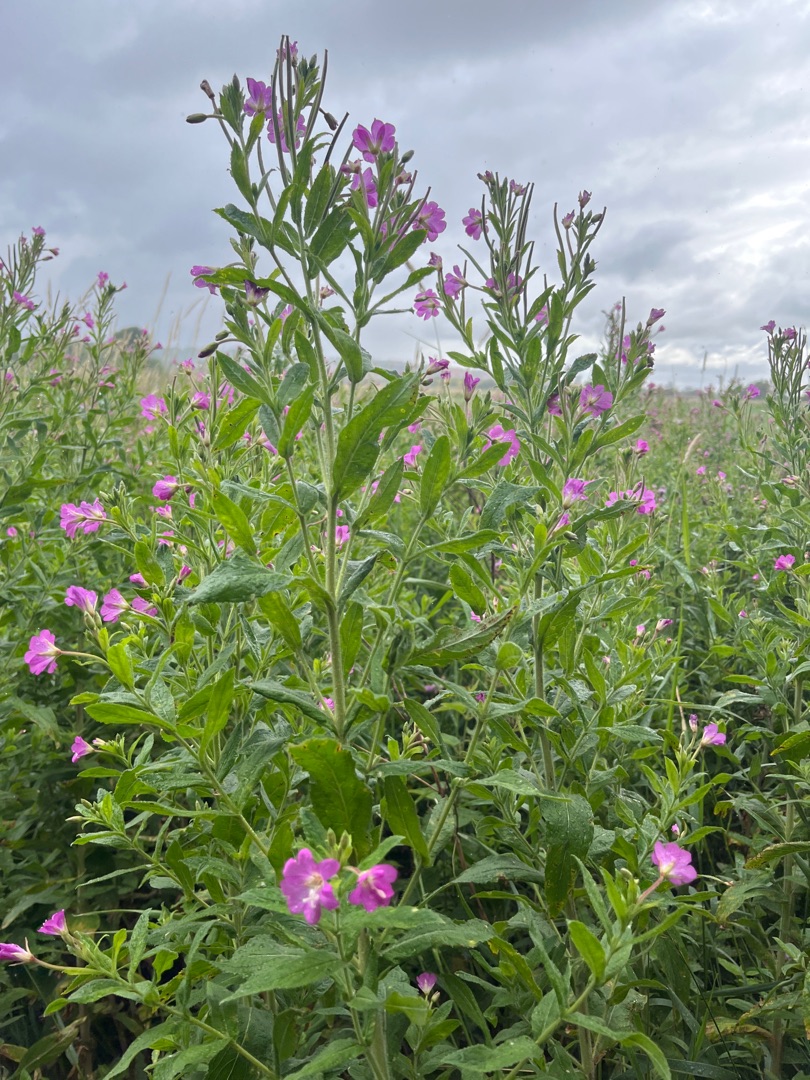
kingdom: Plantae
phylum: Tracheophyta
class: Magnoliopsida
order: Myrtales
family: Onagraceae
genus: Epilobium
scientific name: Epilobium hirsutum
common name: Lådden dueurt
